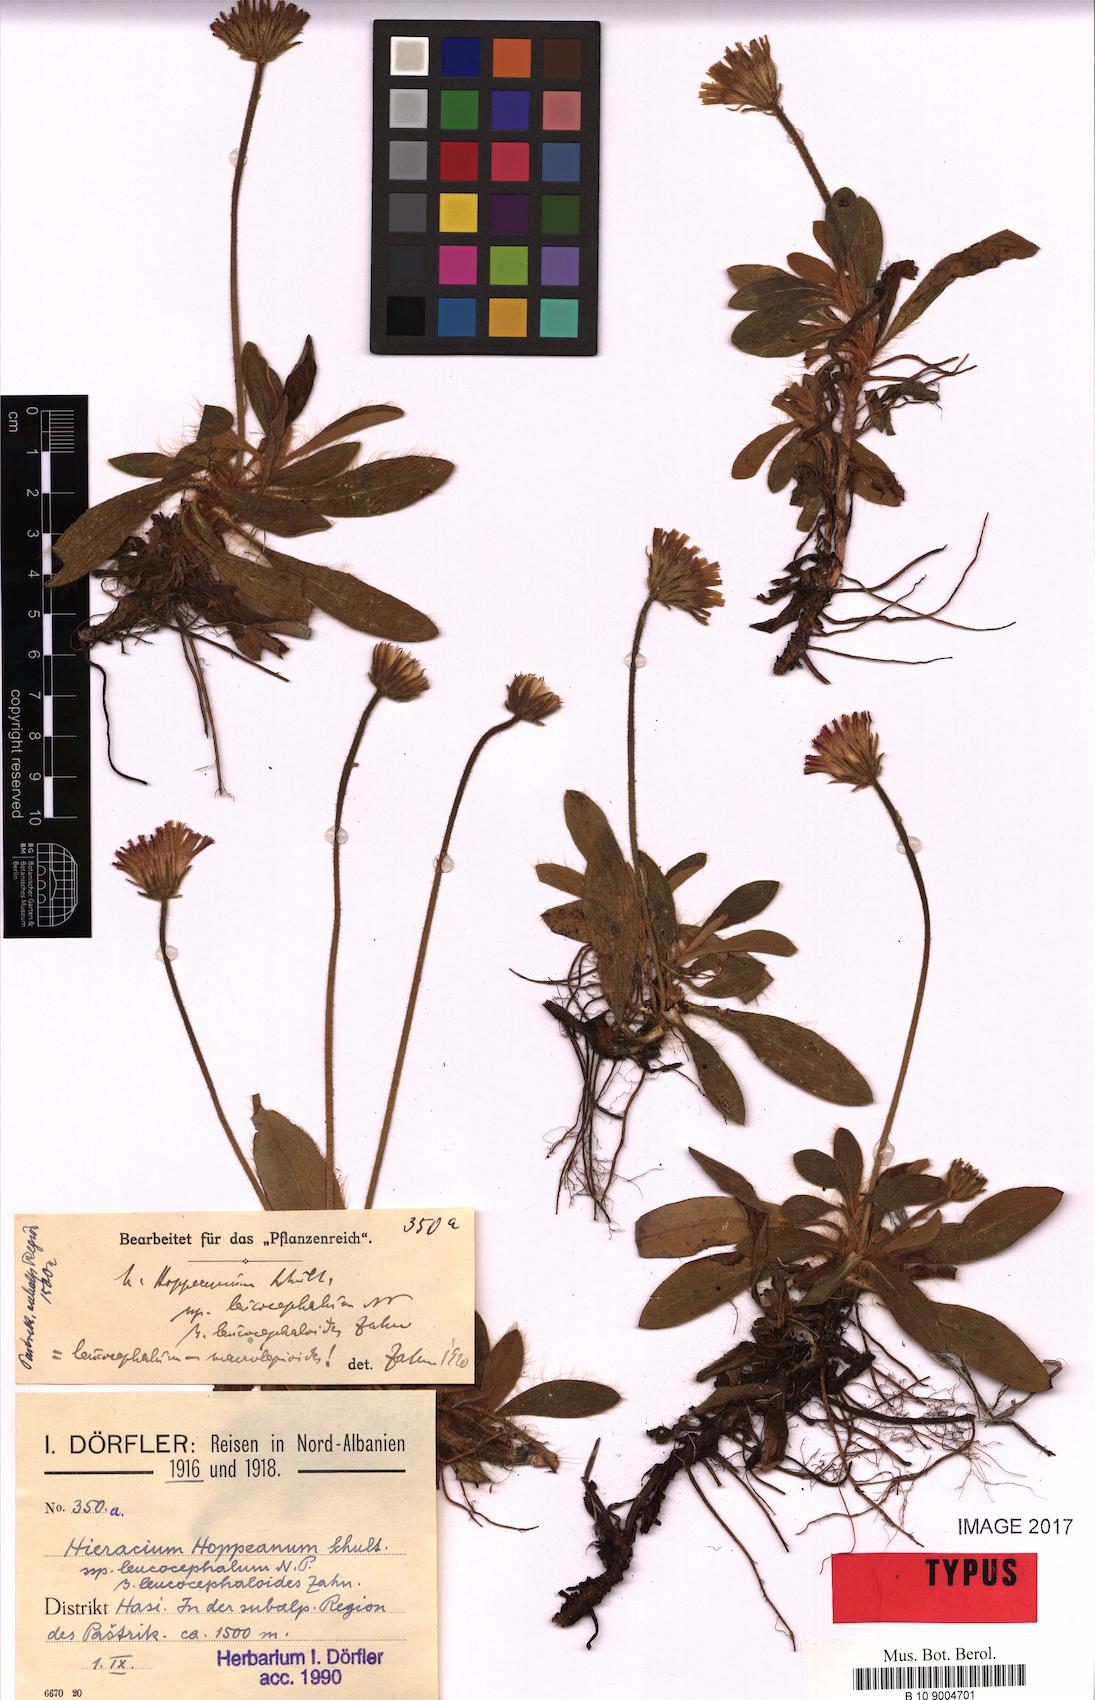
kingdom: Plantae
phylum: Tracheophyta
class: Magnoliopsida
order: Asterales
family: Asteraceae
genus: Pilosella
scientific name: Pilosella leucopsilon
